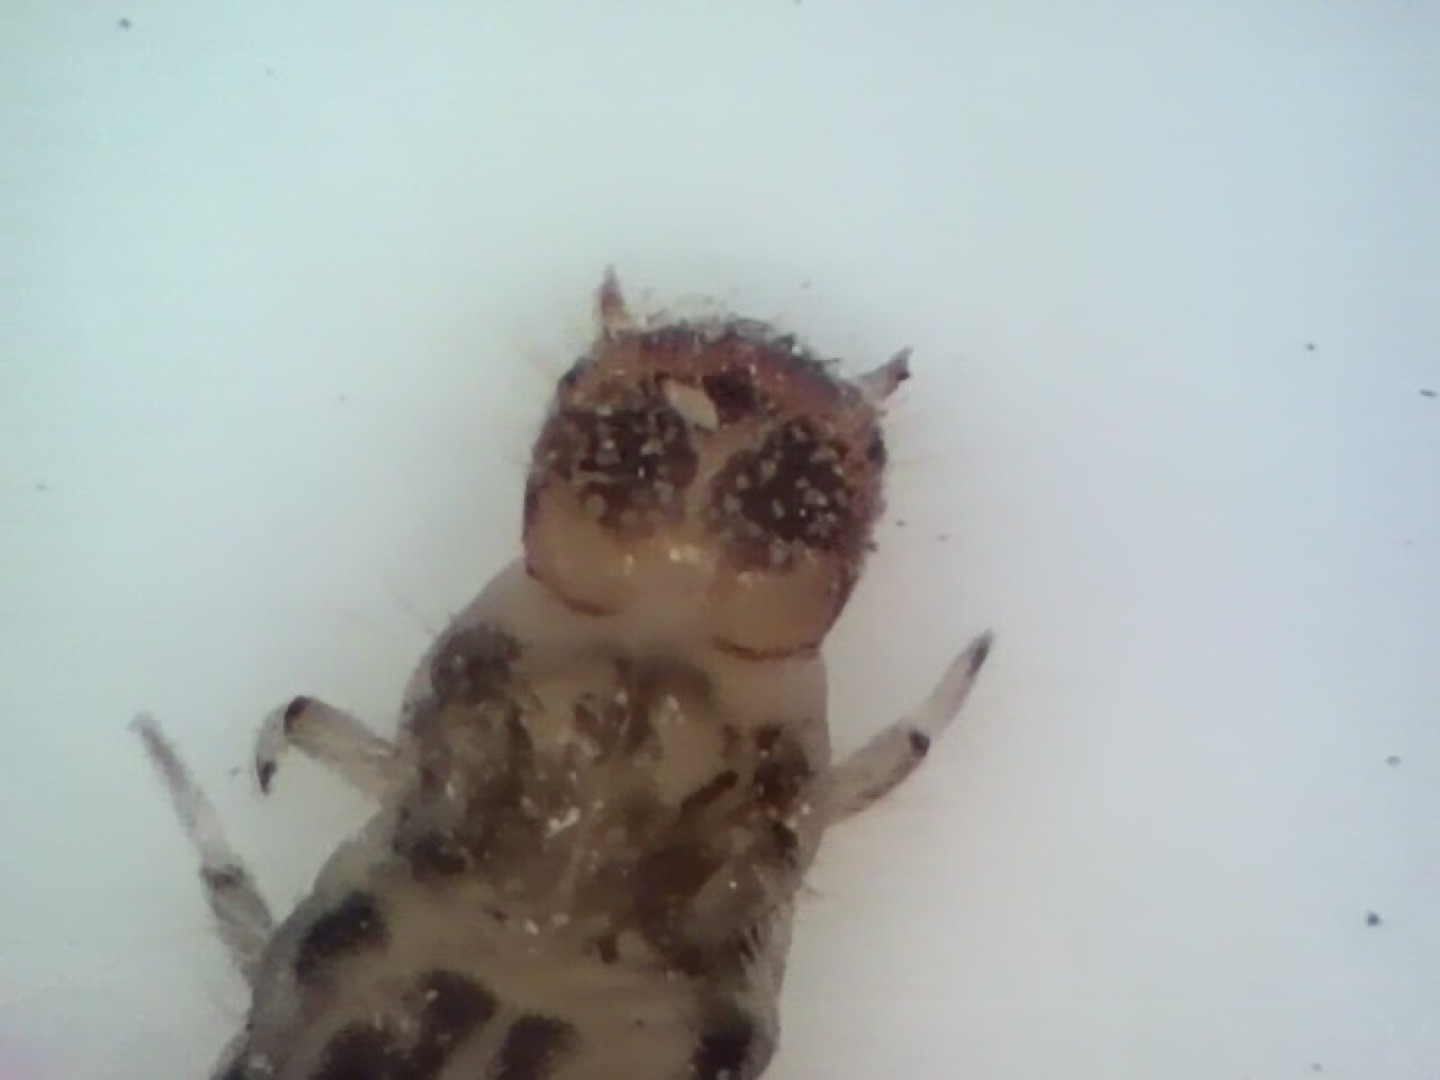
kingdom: Animalia
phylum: Arthropoda
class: Insecta
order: Coleoptera
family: Dasytidae
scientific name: Dasytidae
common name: Malakitbiller
